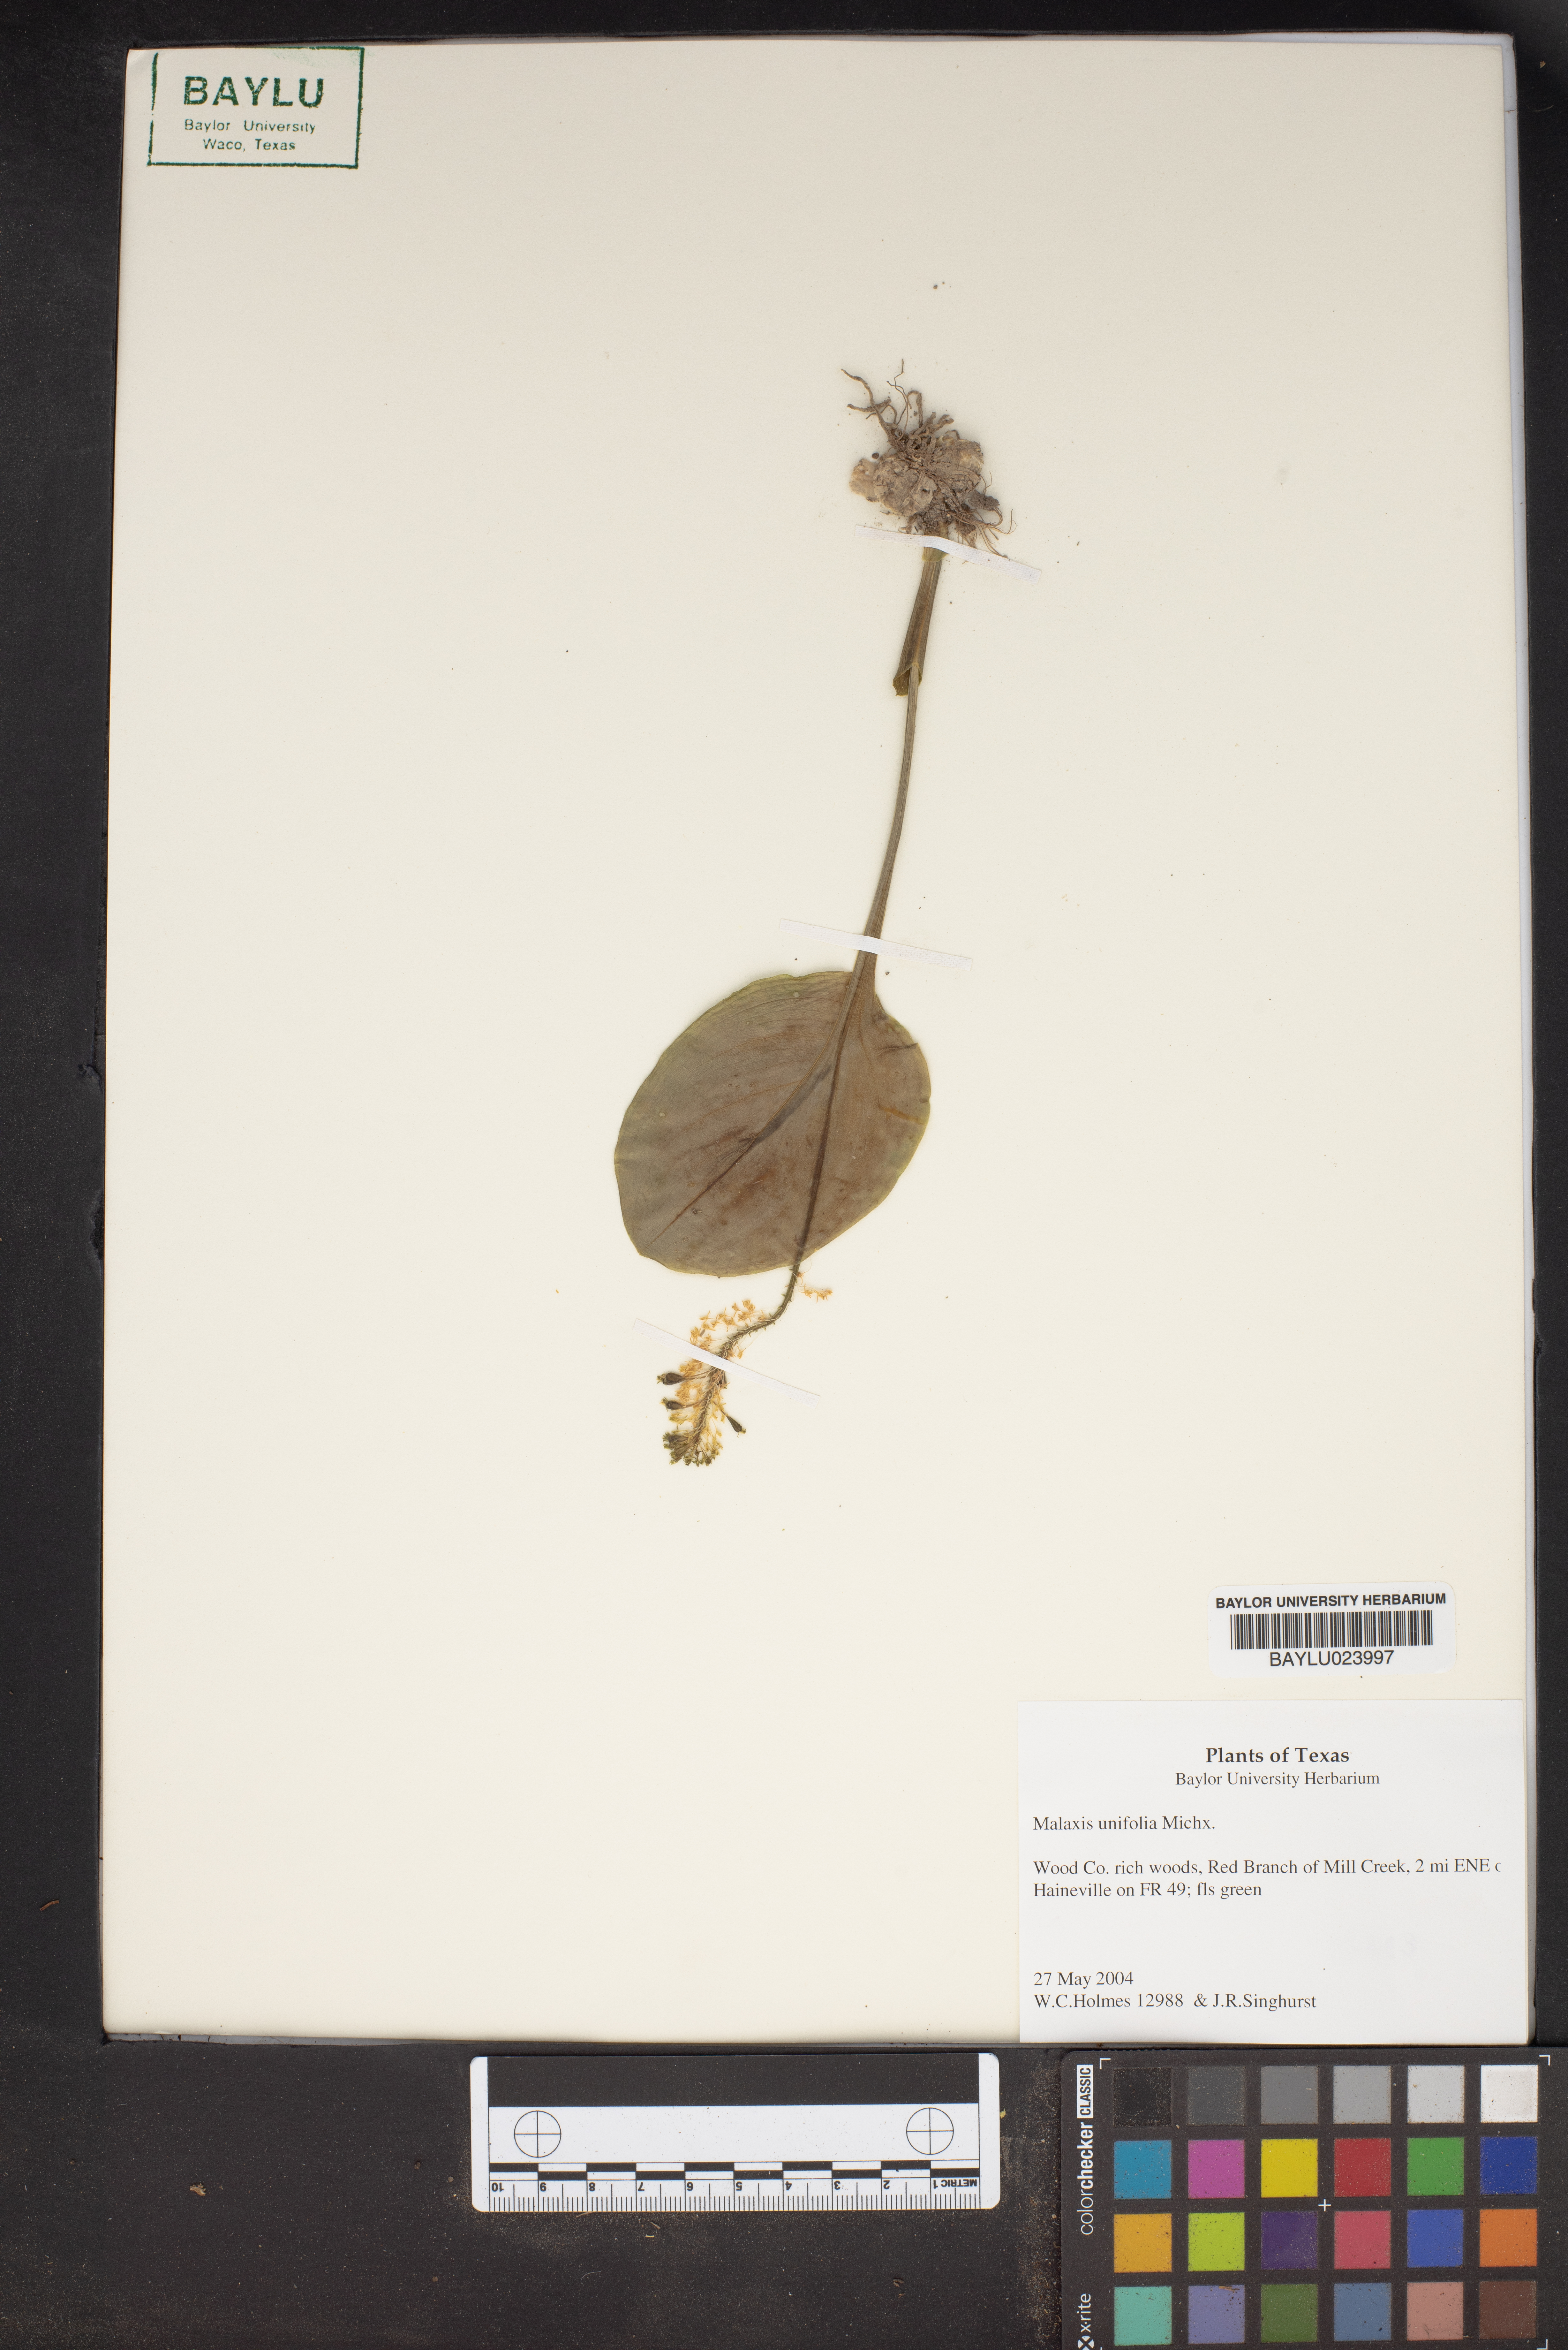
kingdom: Plantae
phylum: Tracheophyta
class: Liliopsida
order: Asparagales
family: Orchidaceae
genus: Malaxis
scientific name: Malaxis unifolia
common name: Green adder's-mouth
